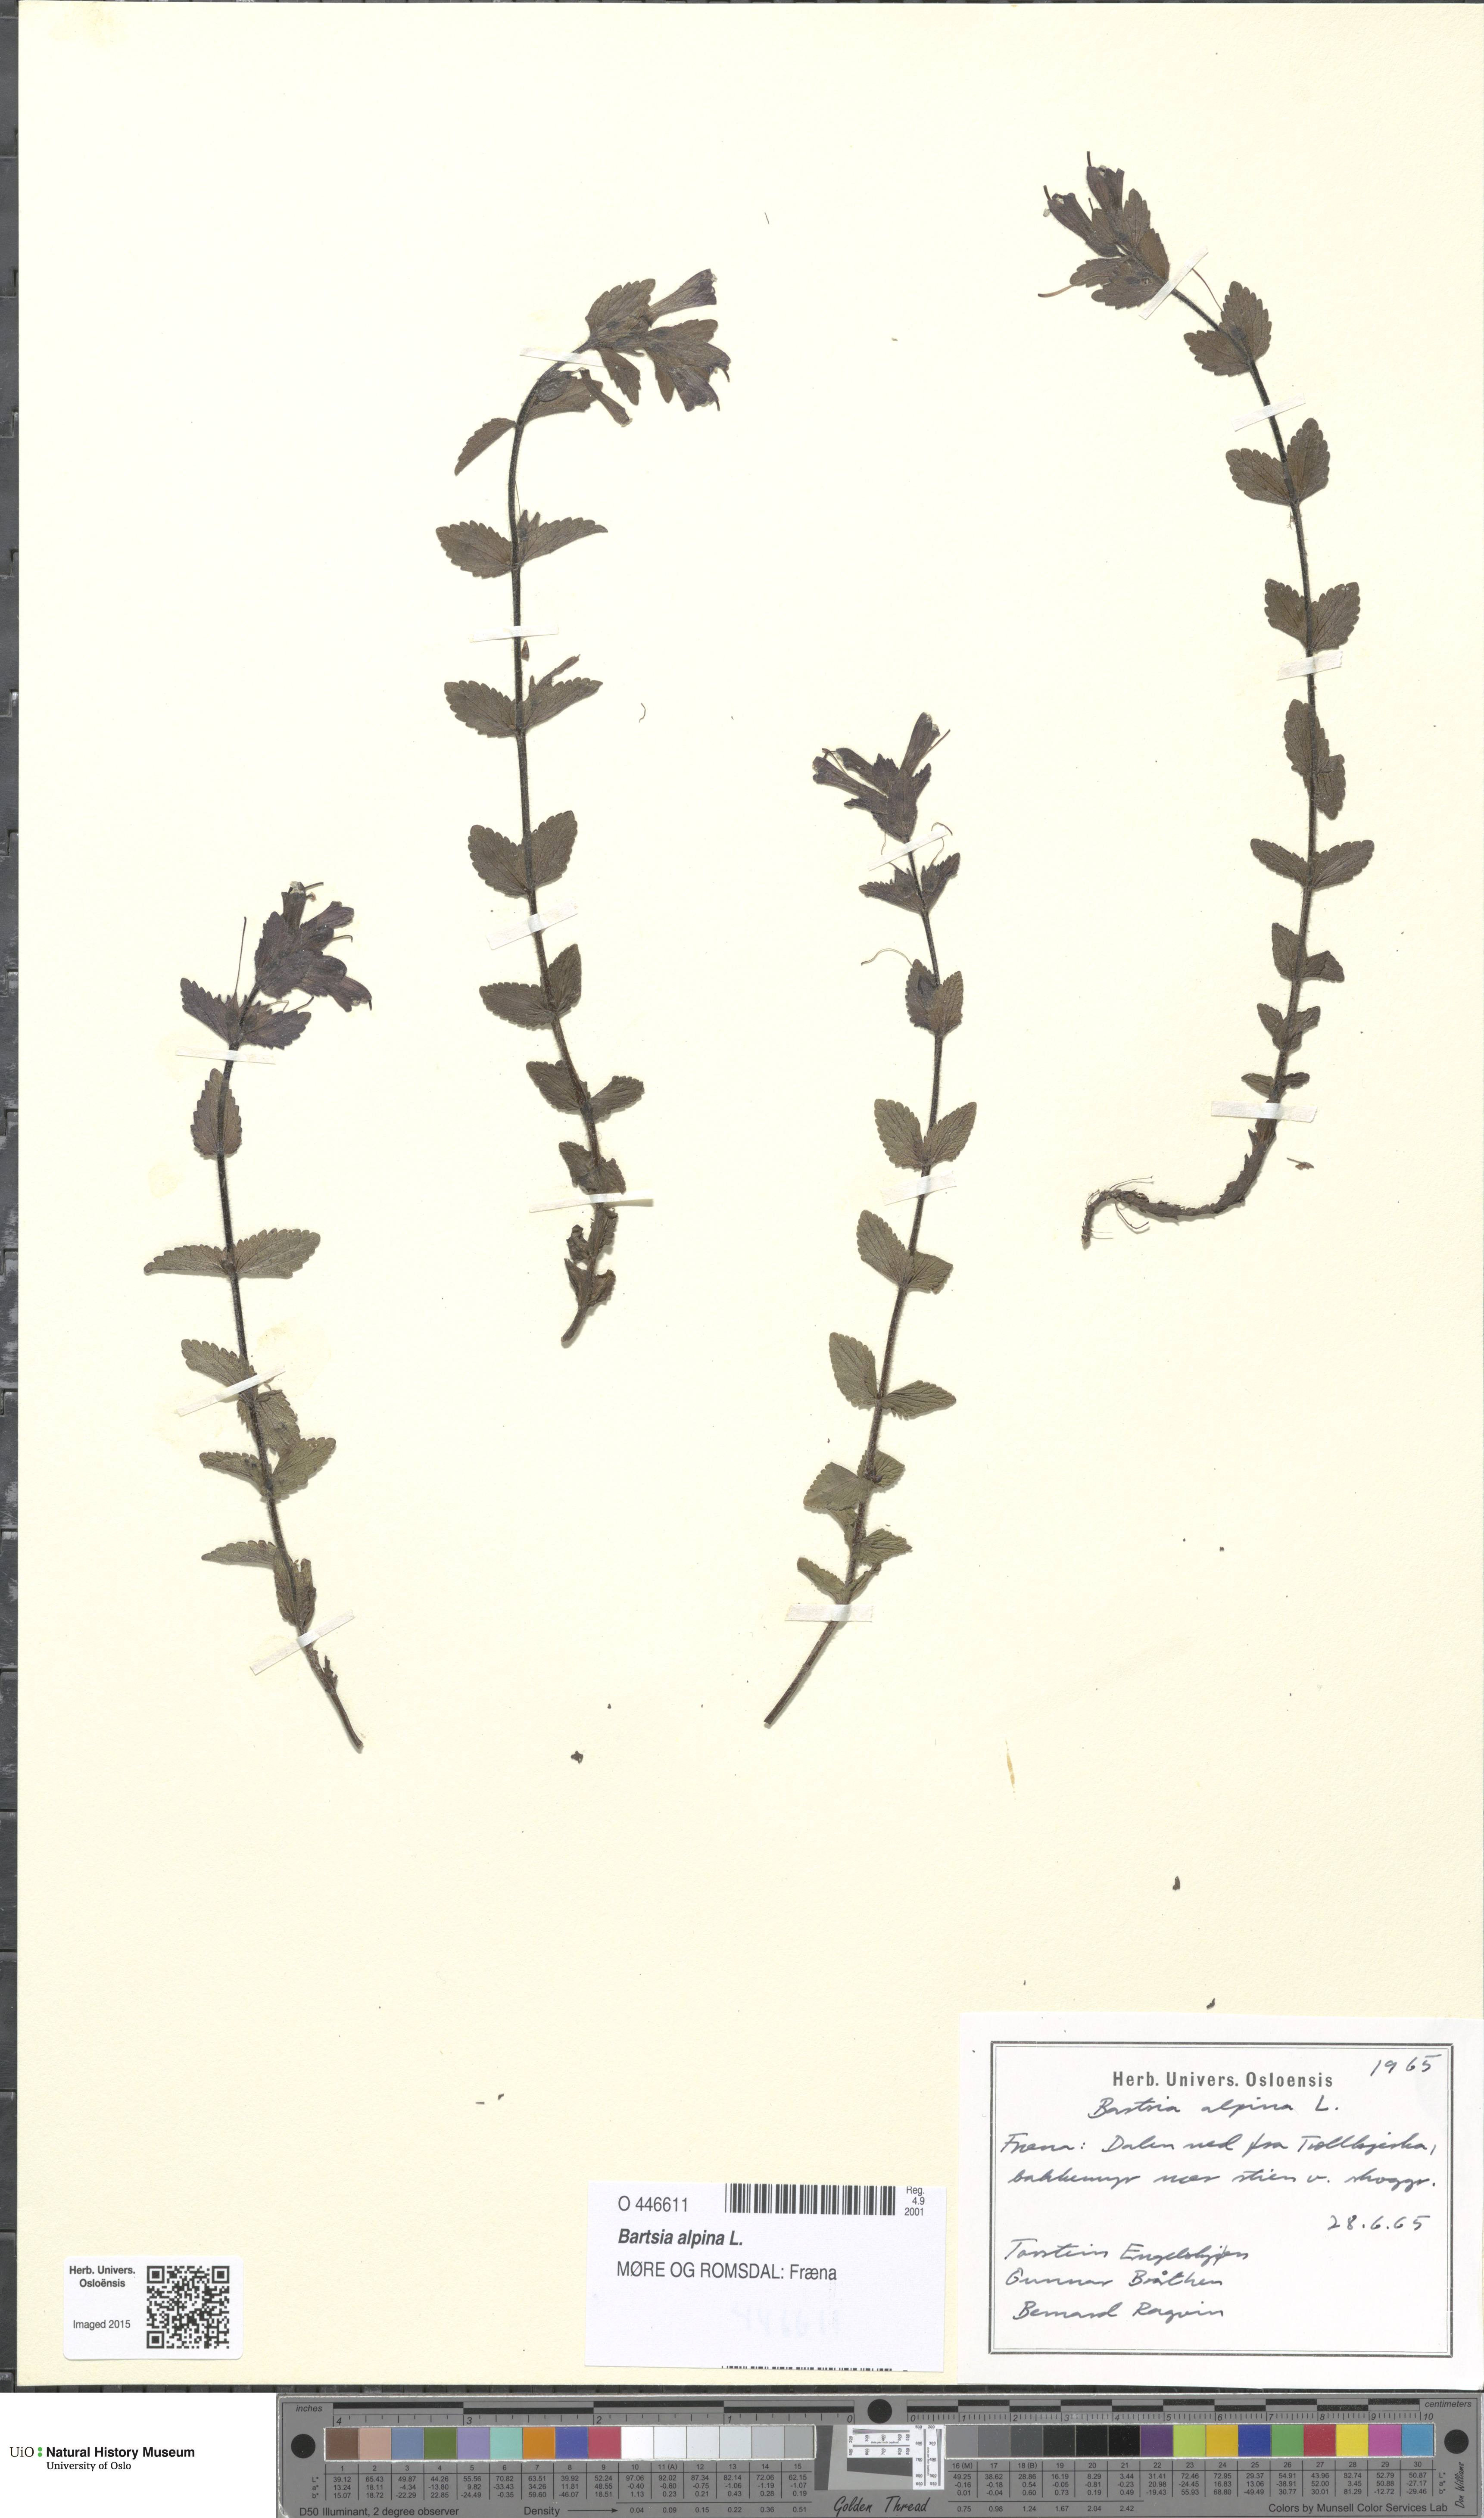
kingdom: Plantae
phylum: Tracheophyta
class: Magnoliopsida
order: Lamiales
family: Orobanchaceae
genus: Bartsia
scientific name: Bartsia alpina
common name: Alpine bartsia
